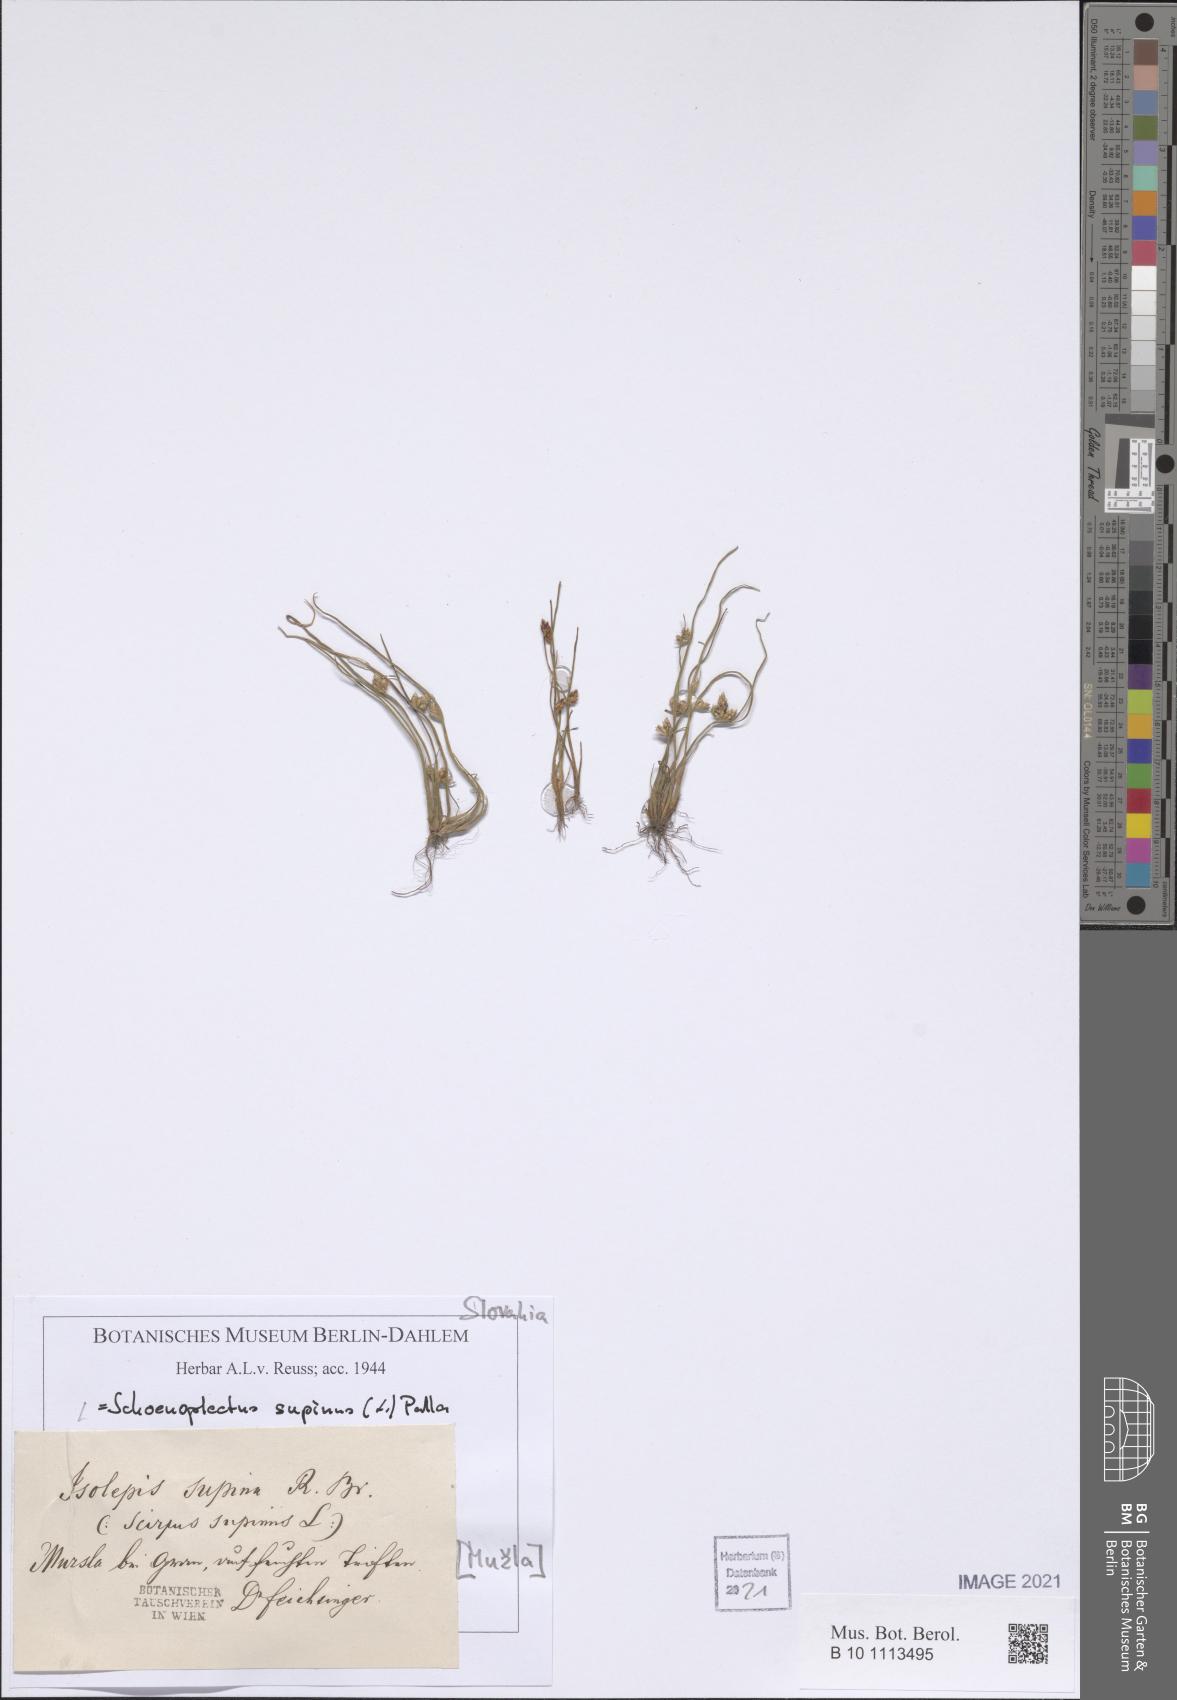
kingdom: Plantae
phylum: Tracheophyta
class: Liliopsida
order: Poales
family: Cyperaceae
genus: Schoenoplectiella
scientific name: Schoenoplectiella supina
